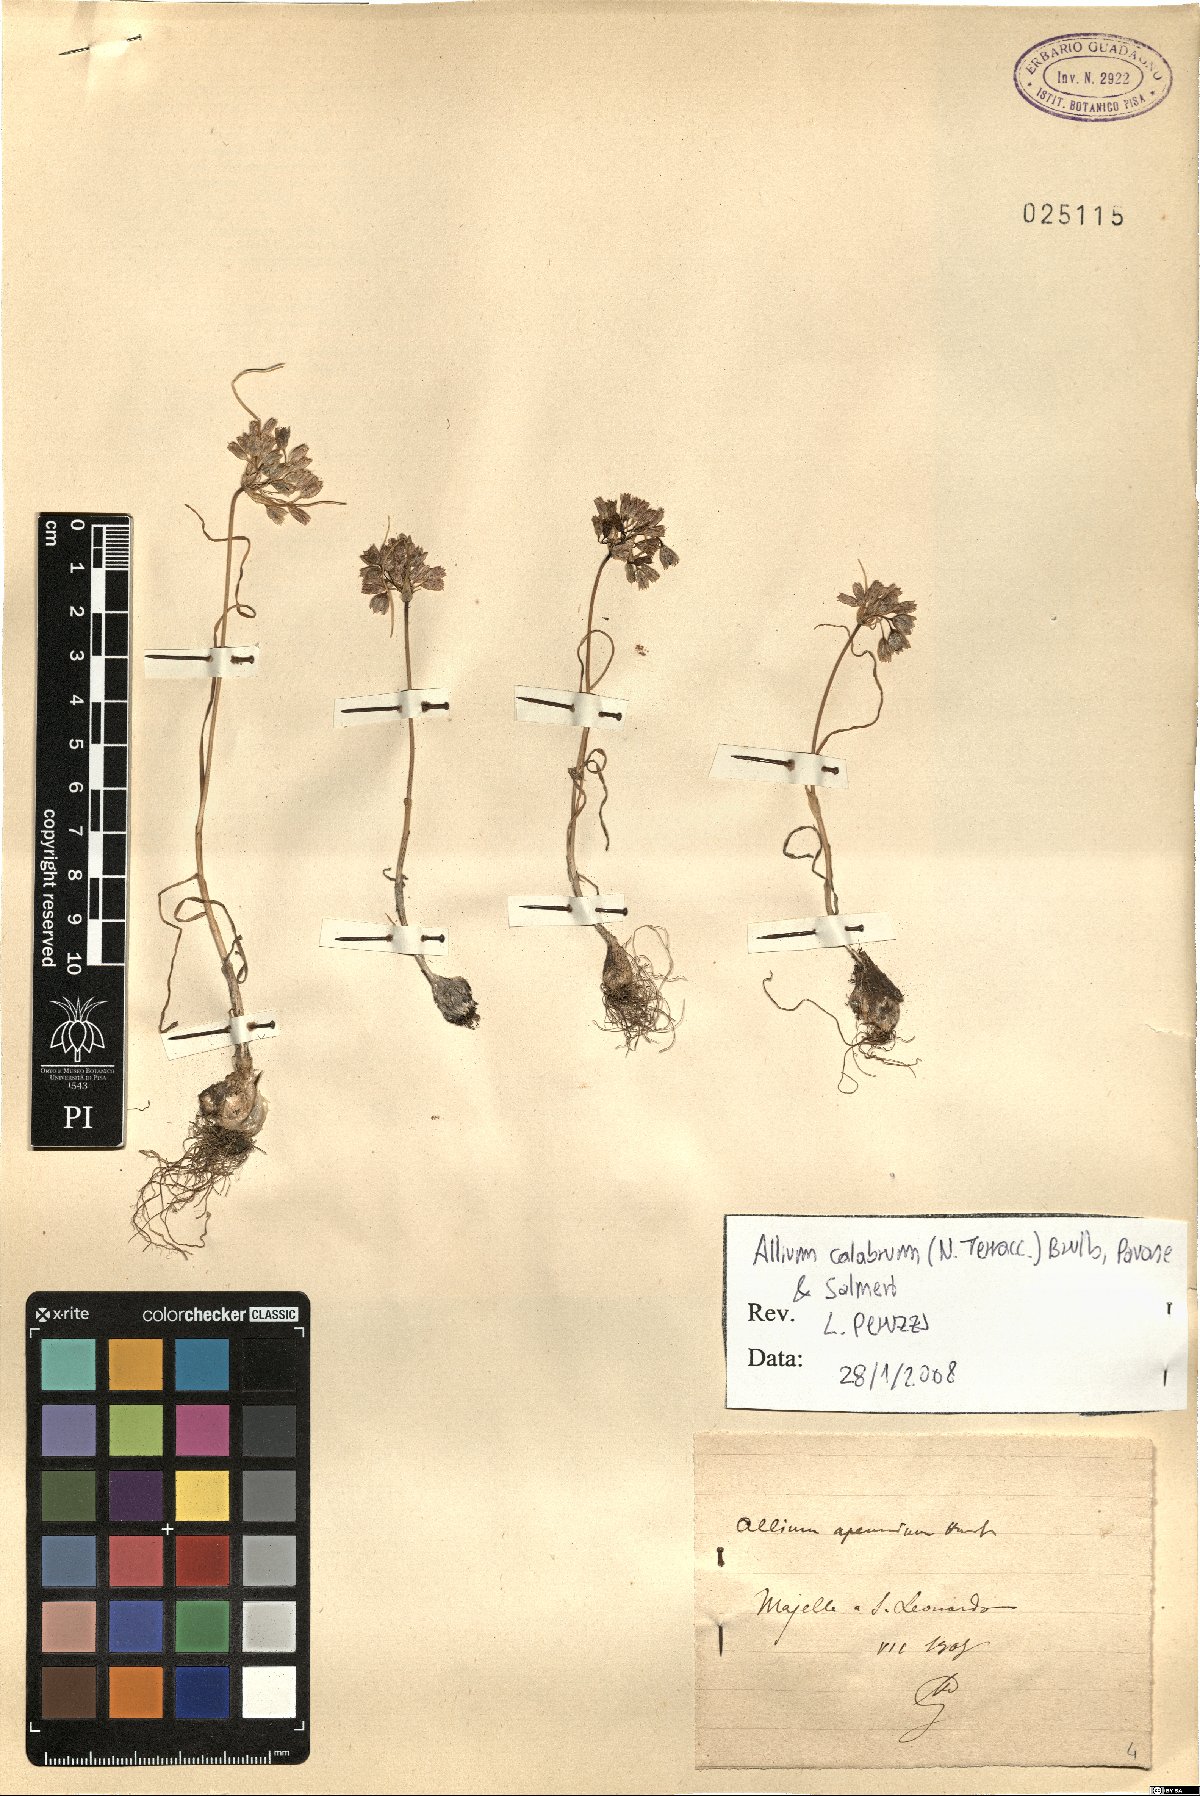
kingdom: Plantae
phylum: Tracheophyta
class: Liliopsida
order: Asparagales
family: Amaryllidaceae
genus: Allium
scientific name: Allium calabrum
